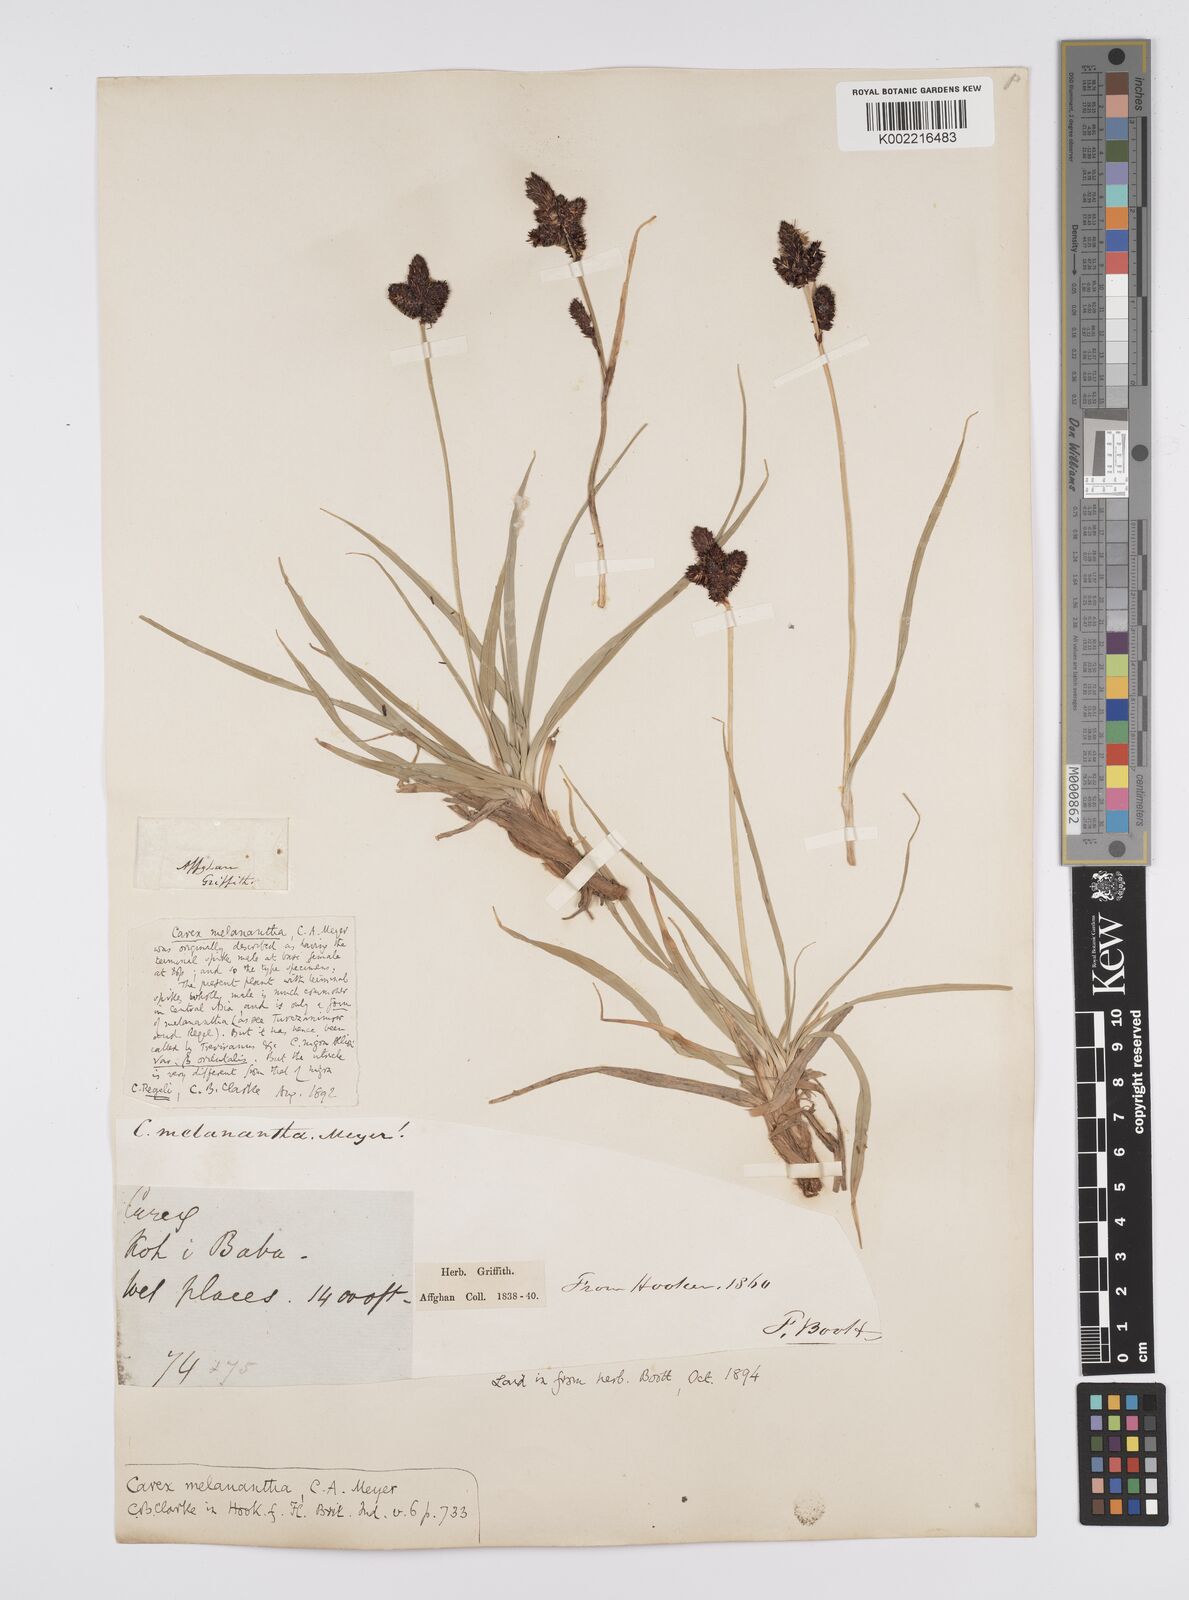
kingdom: Plantae
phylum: Tracheophyta
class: Liliopsida
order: Poales
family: Cyperaceae
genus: Carex
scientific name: Carex melanantha
